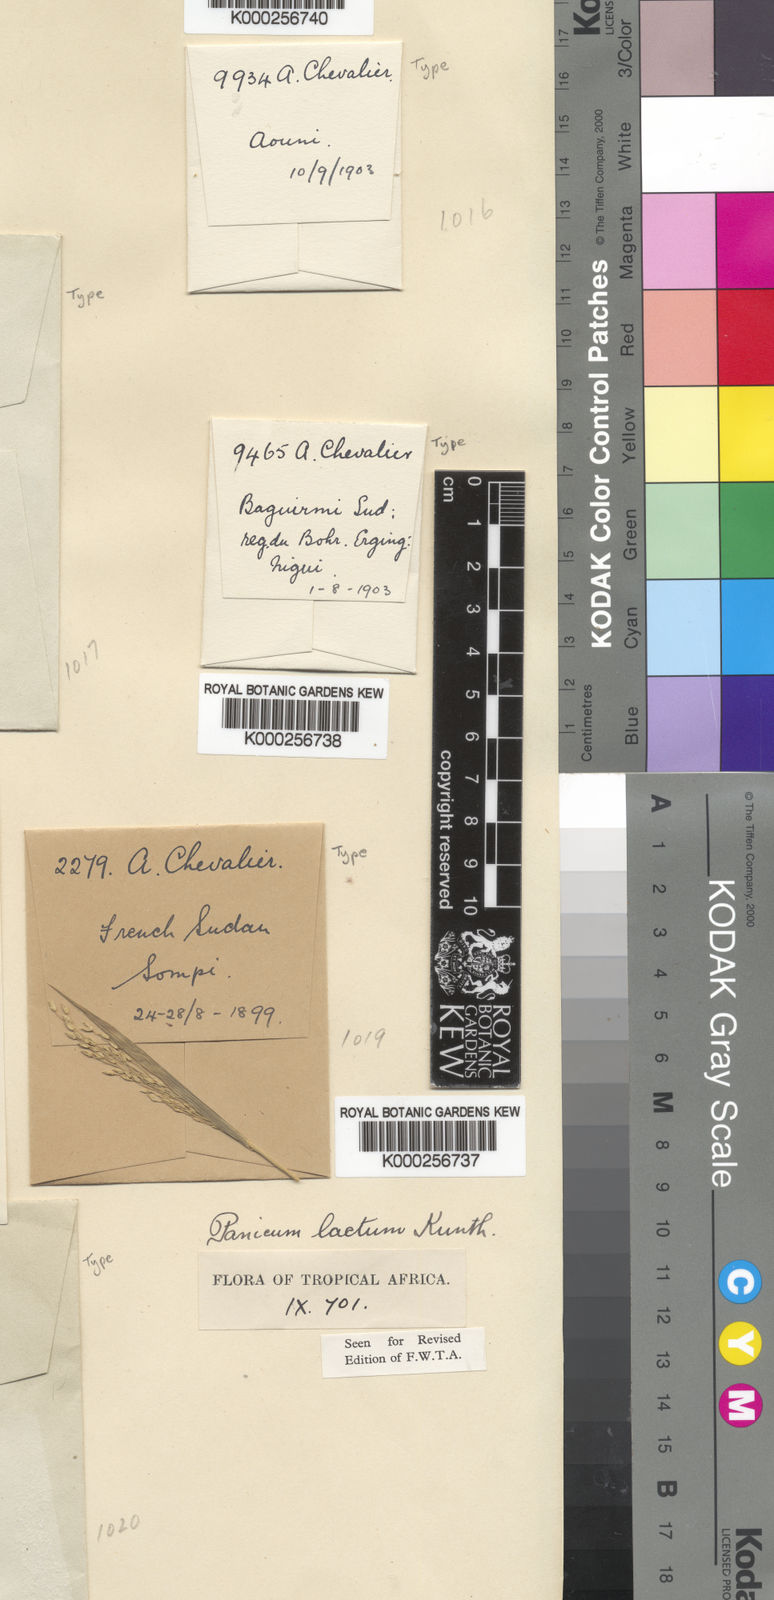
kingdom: Plantae
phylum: Tracheophyta
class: Liliopsida
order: Poales
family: Poaceae
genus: Panicum
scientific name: Panicum laetum
